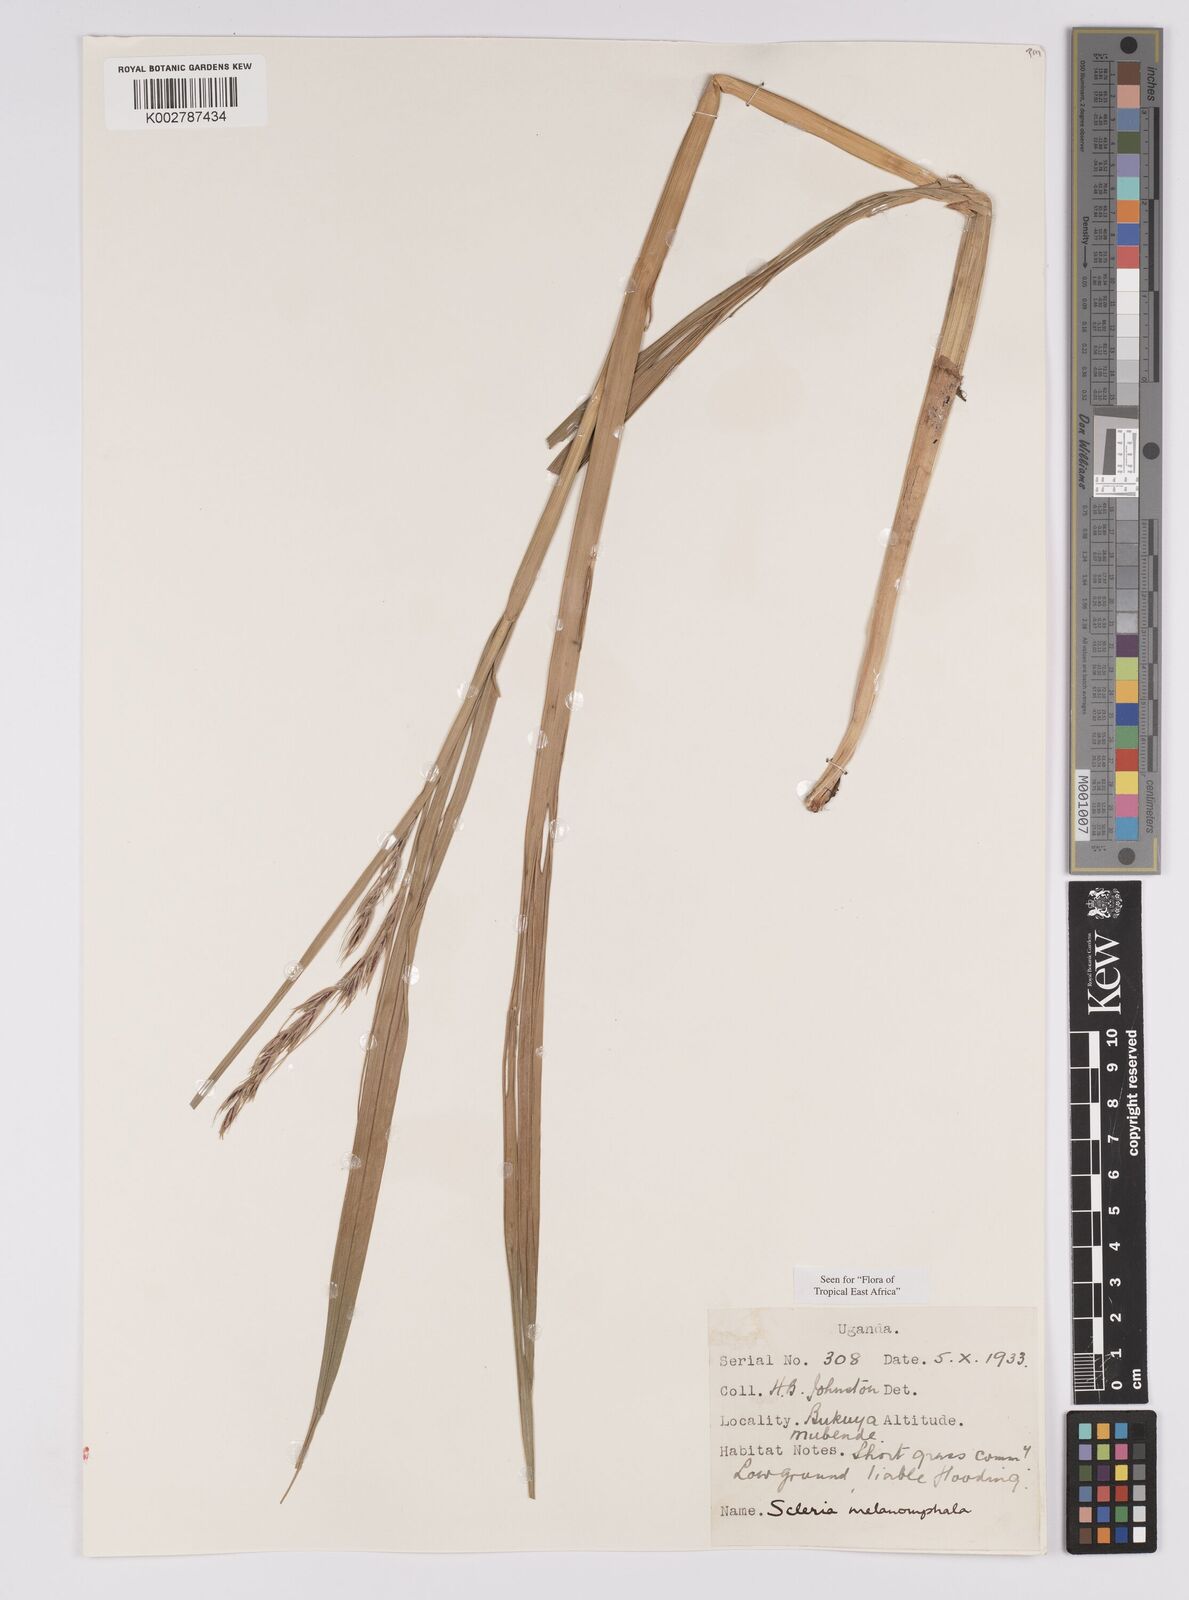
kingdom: Plantae
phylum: Tracheophyta
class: Liliopsida
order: Poales
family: Cyperaceae
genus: Scleria
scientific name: Scleria melanomphala
